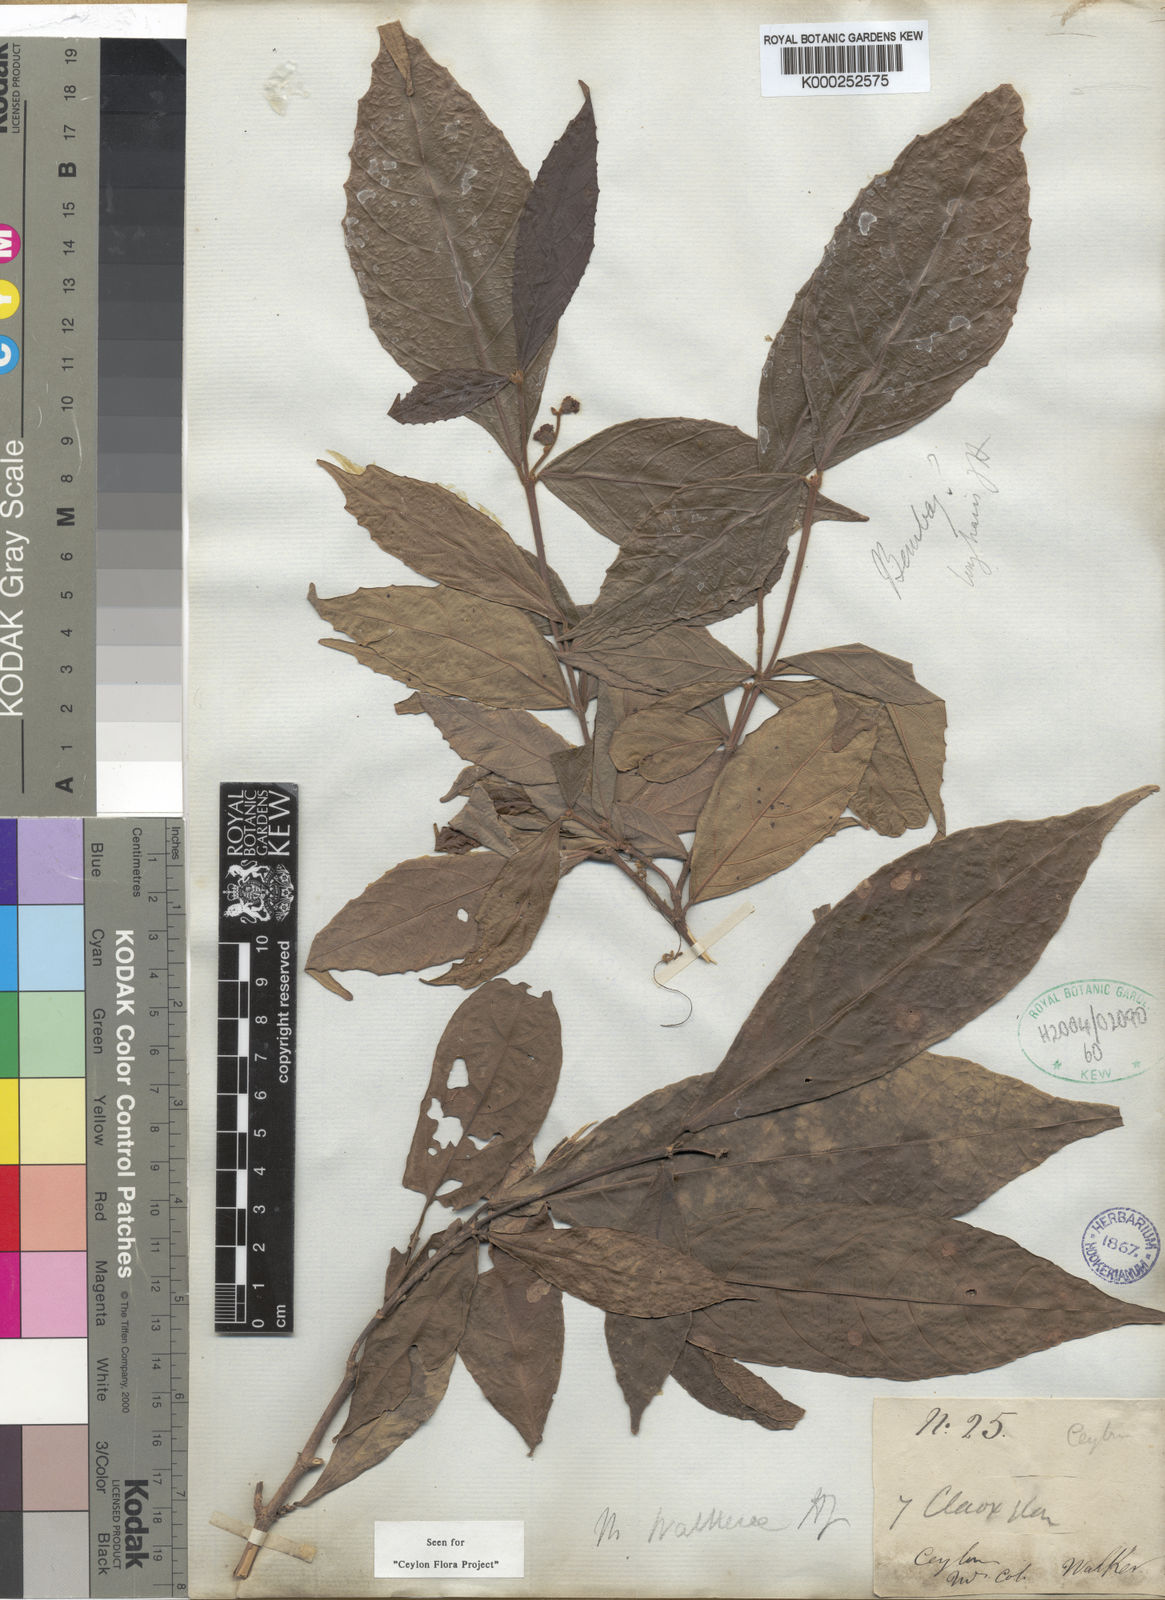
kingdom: Plantae
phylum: Tracheophyta
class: Magnoliopsida
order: Malpighiales
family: Euphorbiaceae
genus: Mallotus
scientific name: Mallotus resinosus
